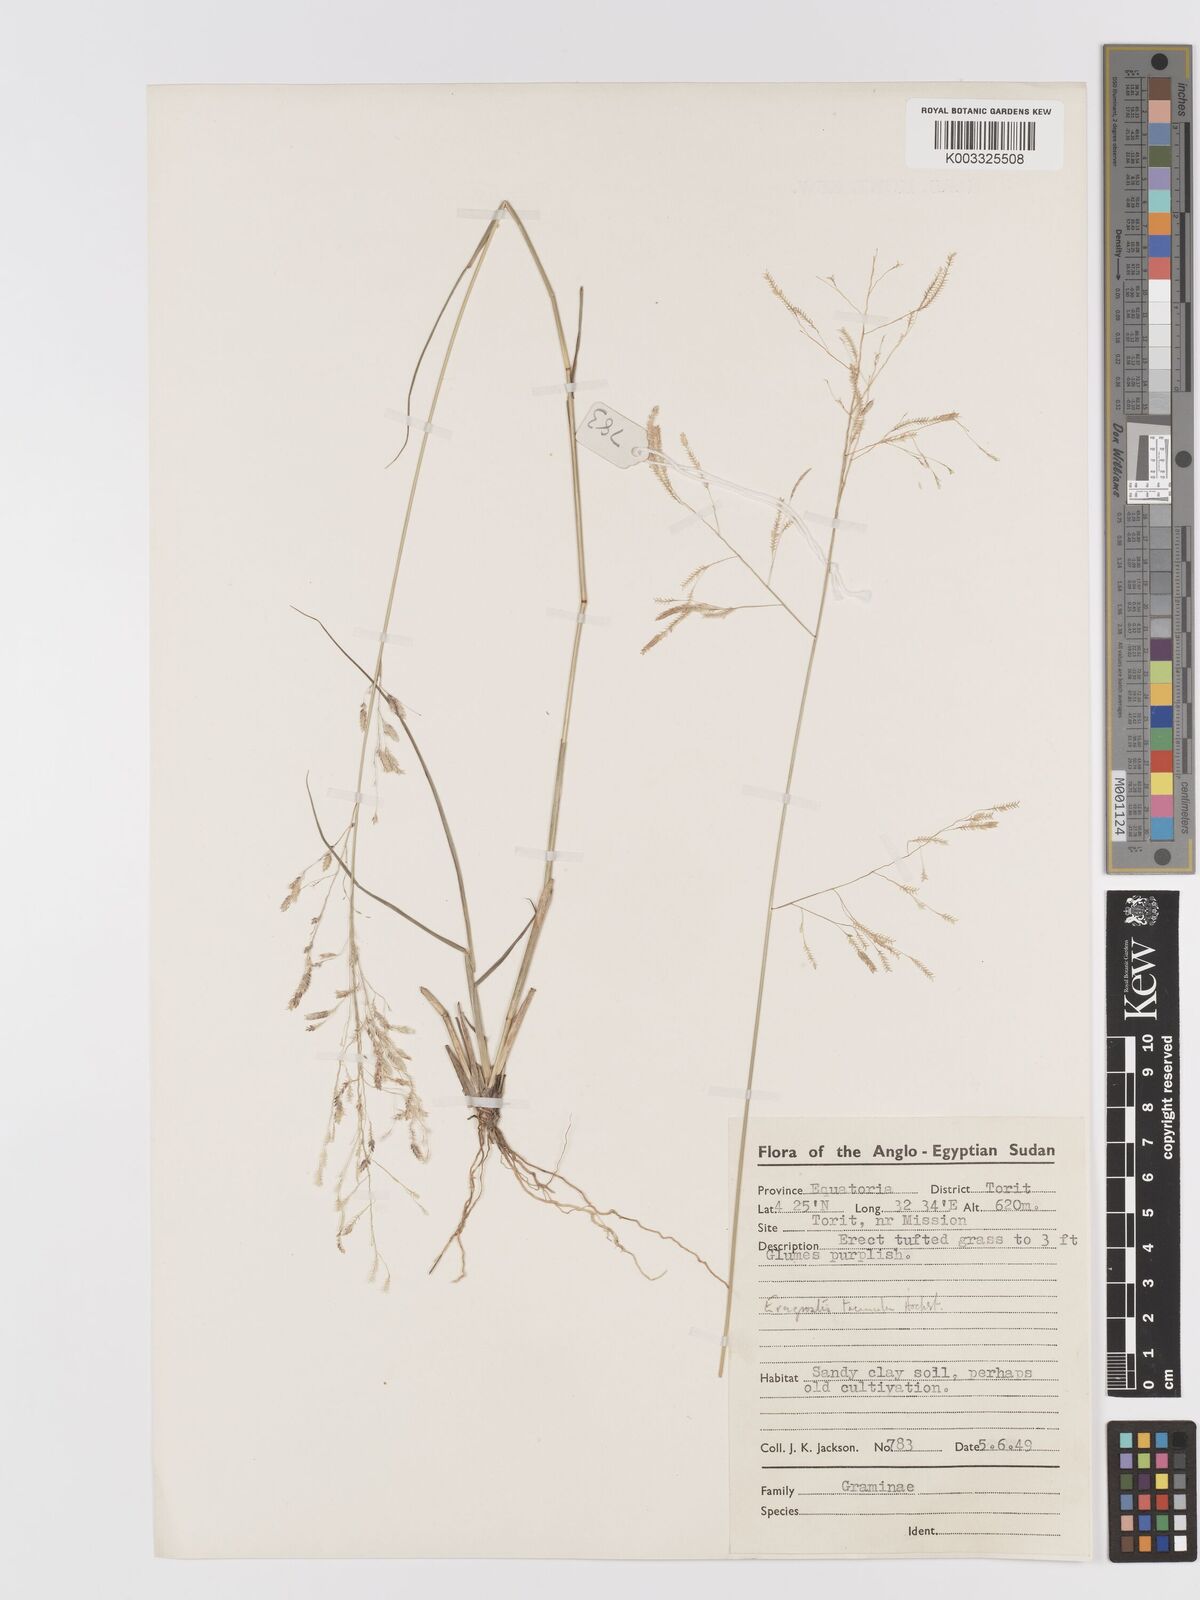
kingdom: Plantae
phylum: Tracheophyta
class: Liliopsida
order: Poales
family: Poaceae
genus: Eragrostis
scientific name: Eragrostis tremula
